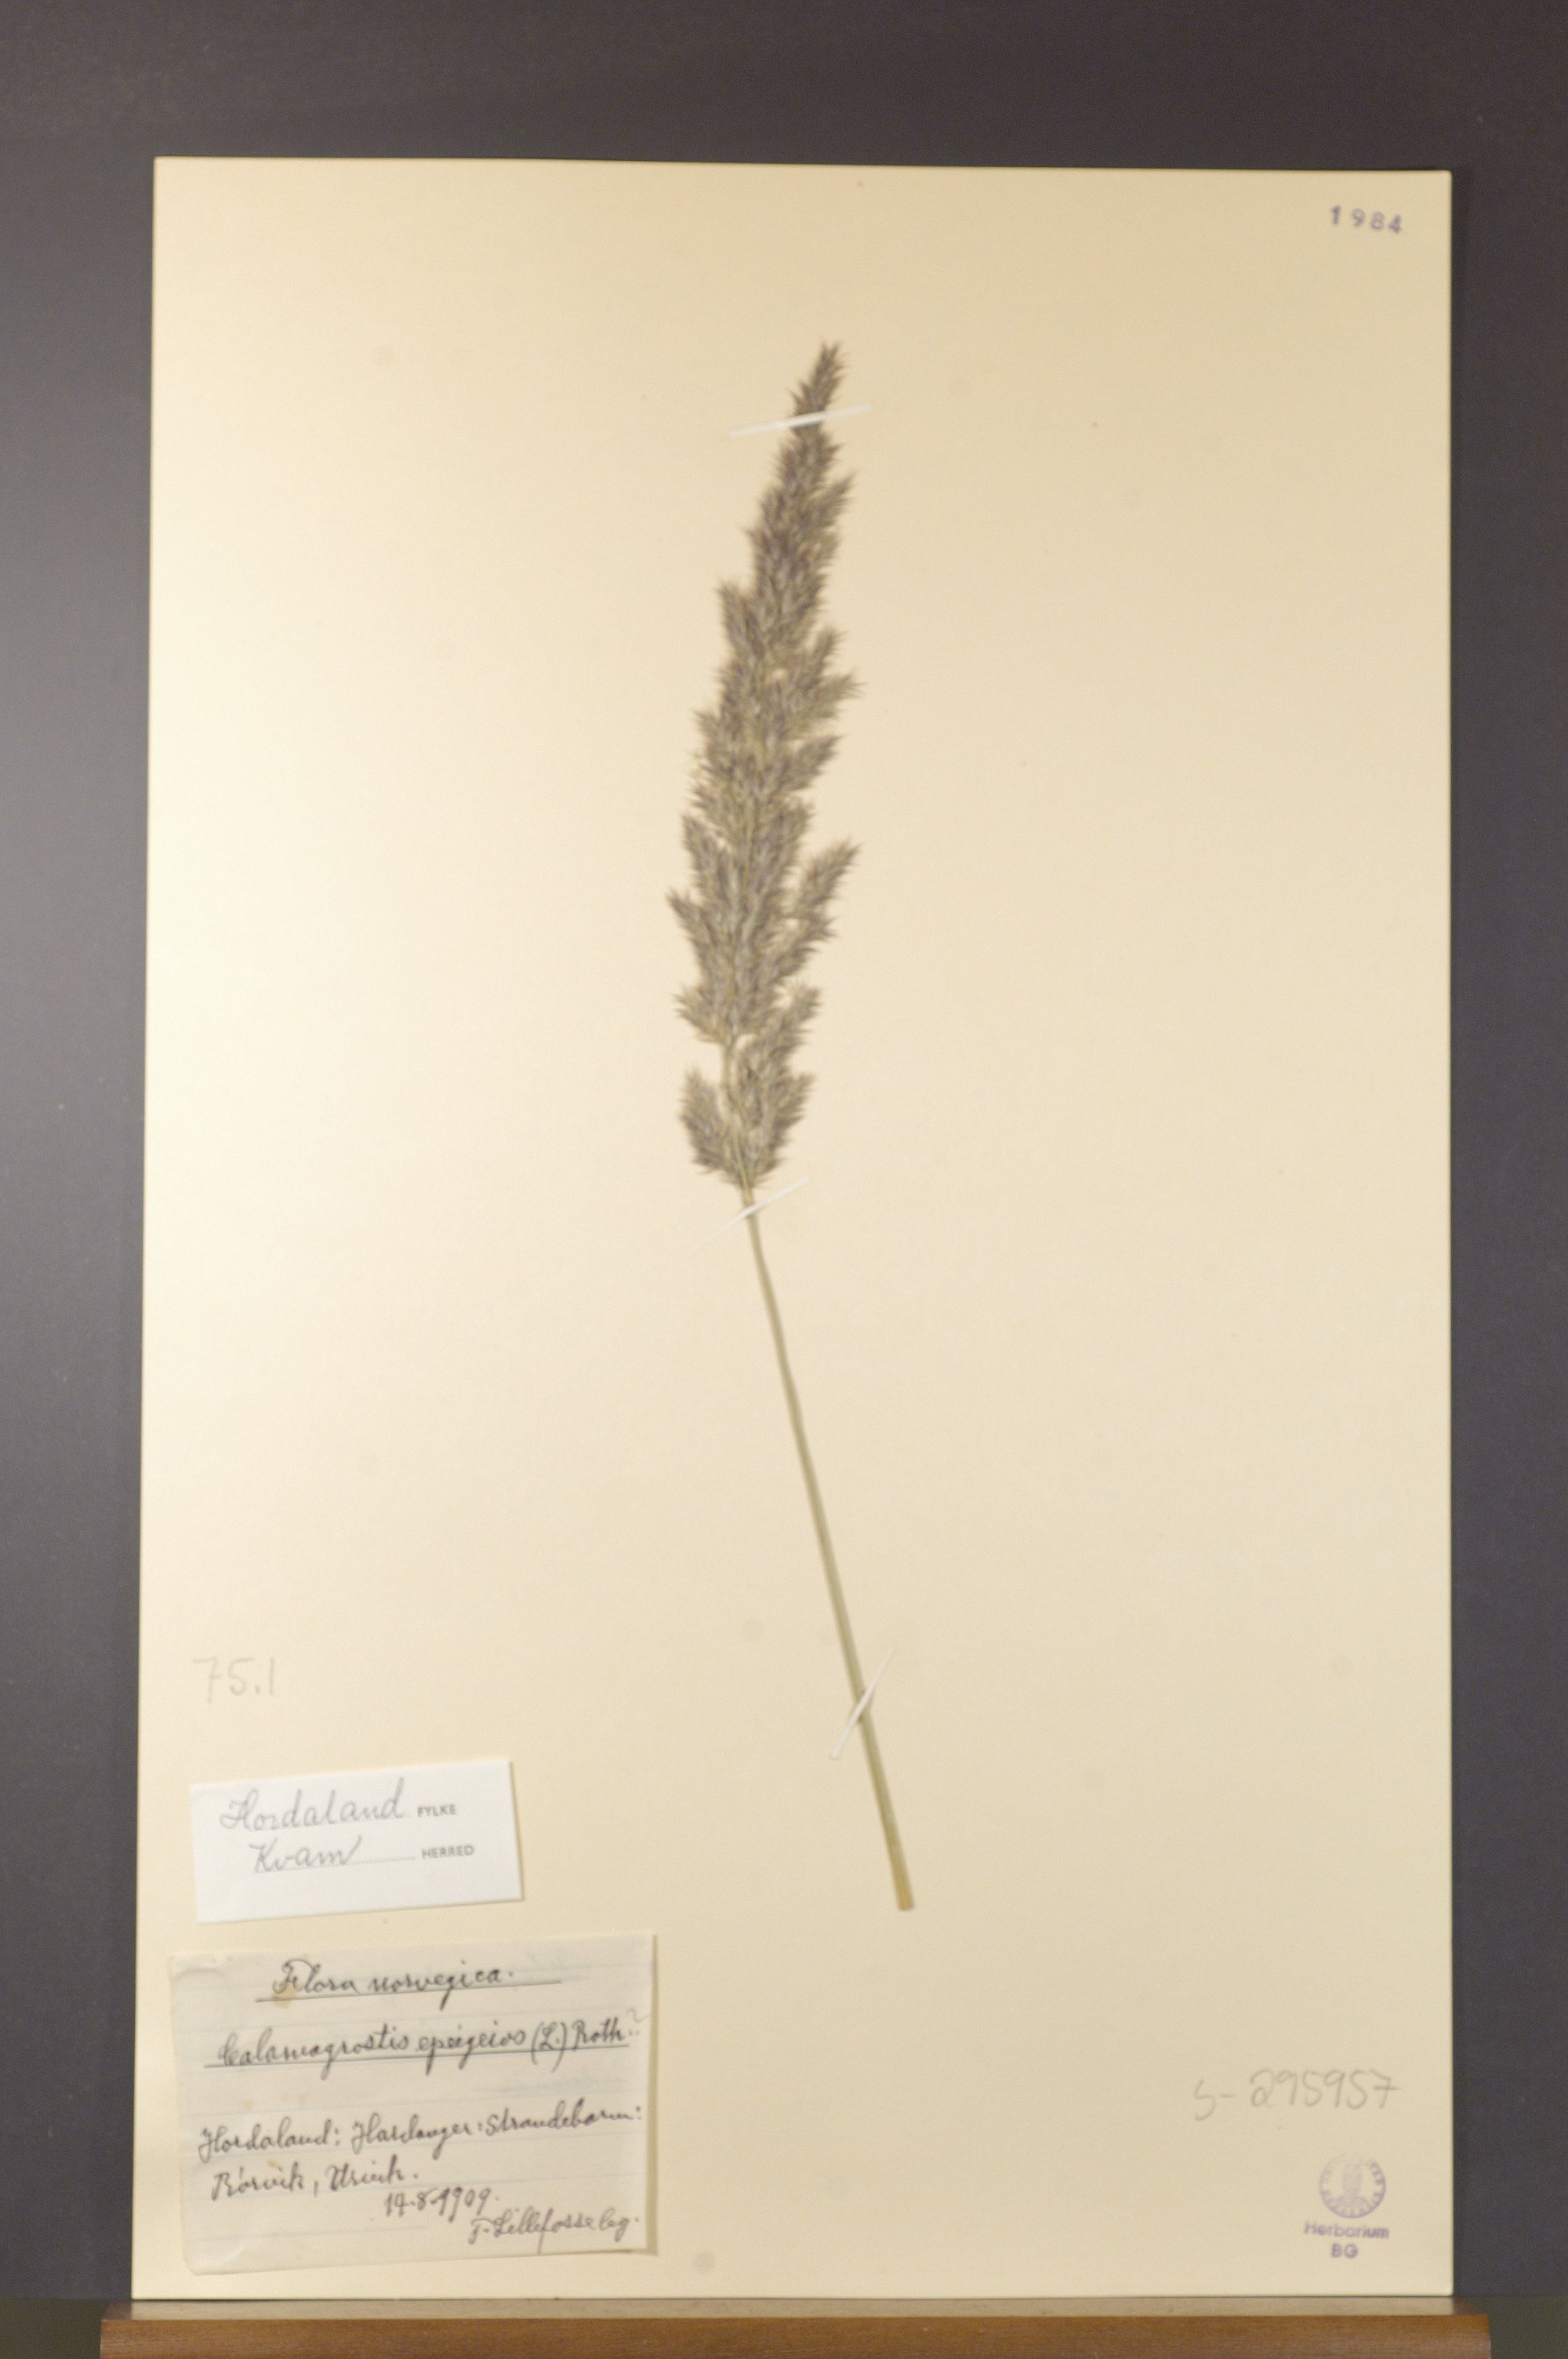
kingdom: Plantae
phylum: Tracheophyta
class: Liliopsida
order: Poales
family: Poaceae
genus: Calamagrostis
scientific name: Calamagrostis epigejos
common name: Wood small-reed
